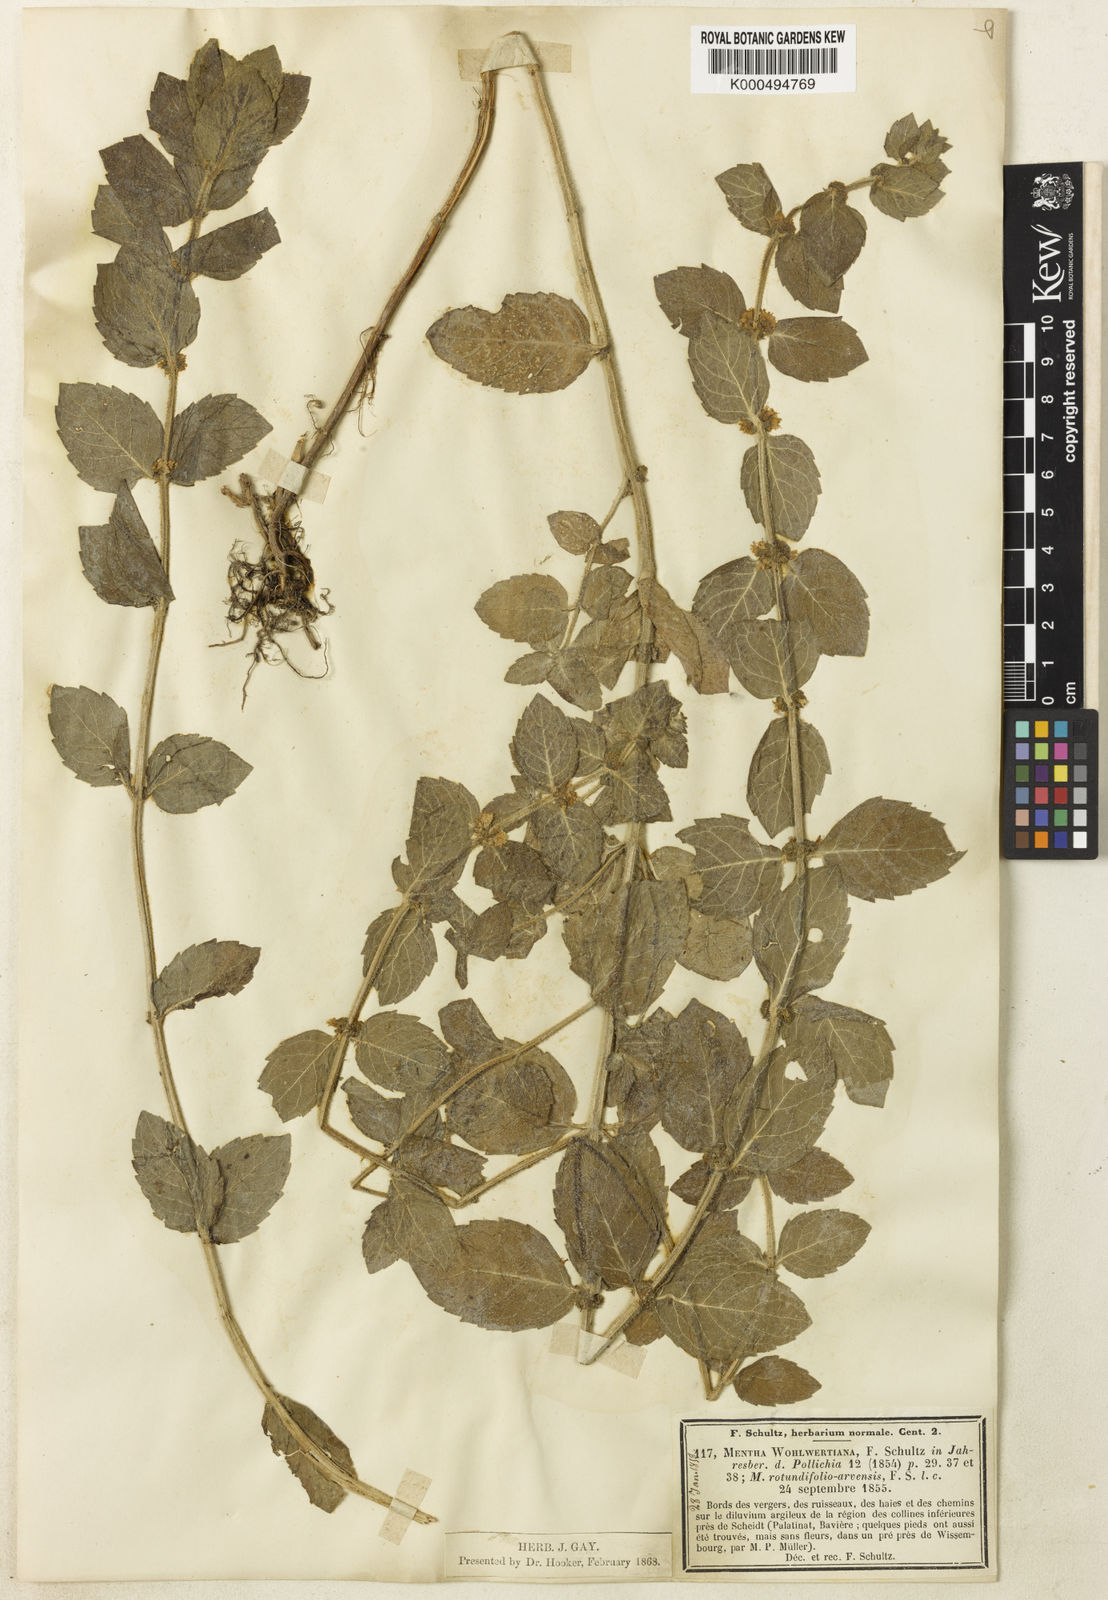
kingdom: Plantae
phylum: Tracheophyta
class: Magnoliopsida
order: Lamiales
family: Lamiaceae
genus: Mentha
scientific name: Mentha carinthiaca
